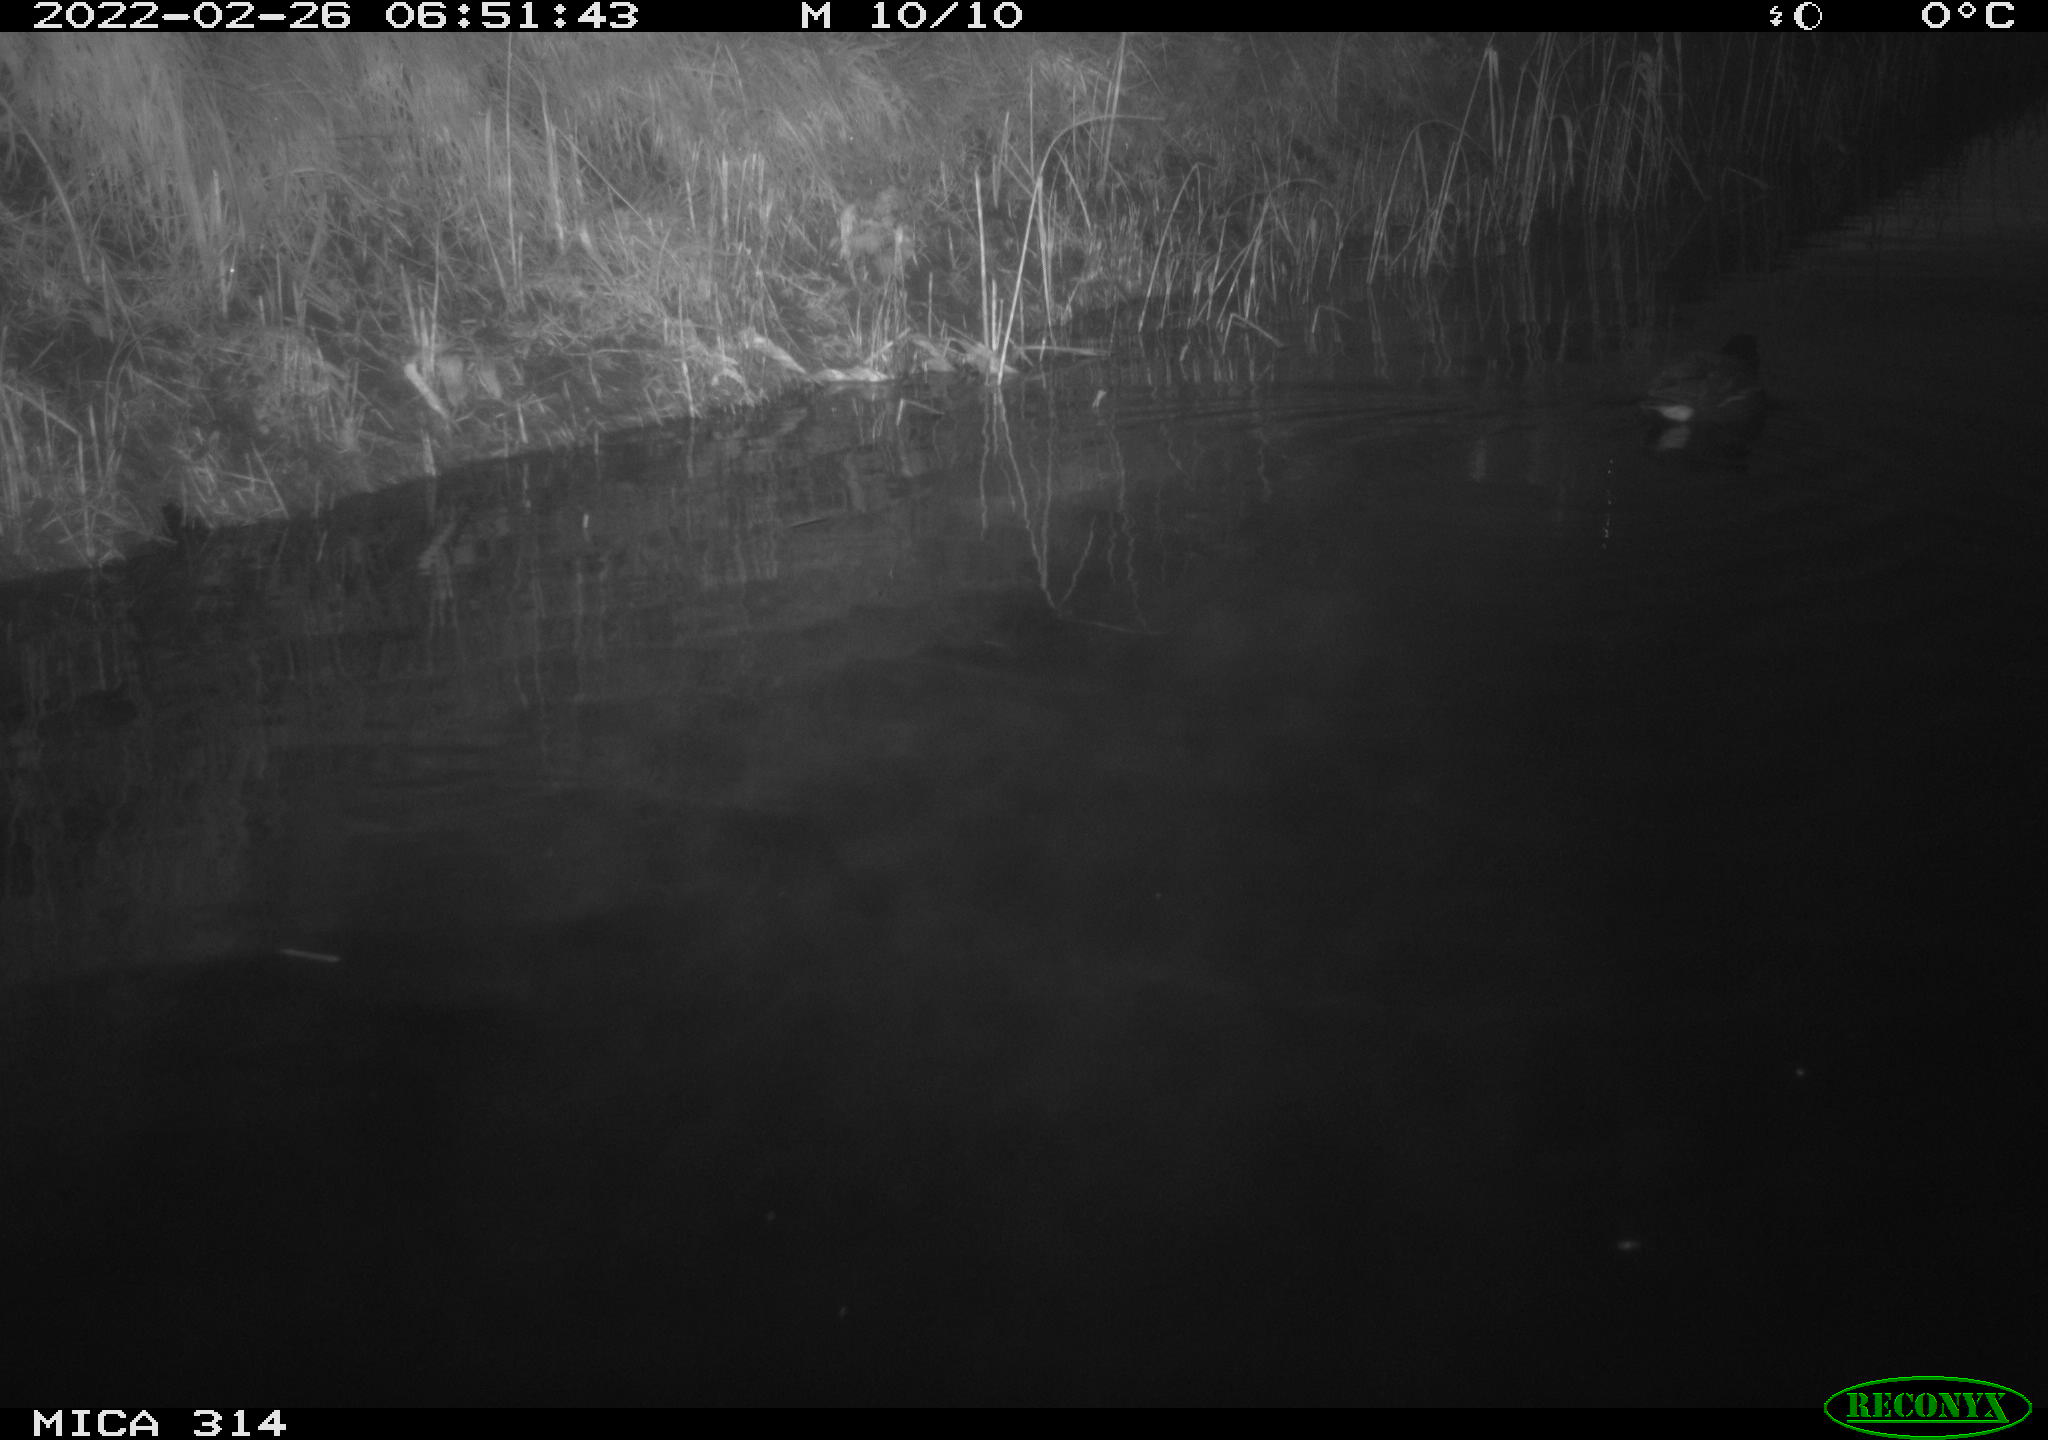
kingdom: Animalia
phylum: Chordata
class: Aves
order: Gruiformes
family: Rallidae
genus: Gallinula
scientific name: Gallinula chloropus
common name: Common moorhen
